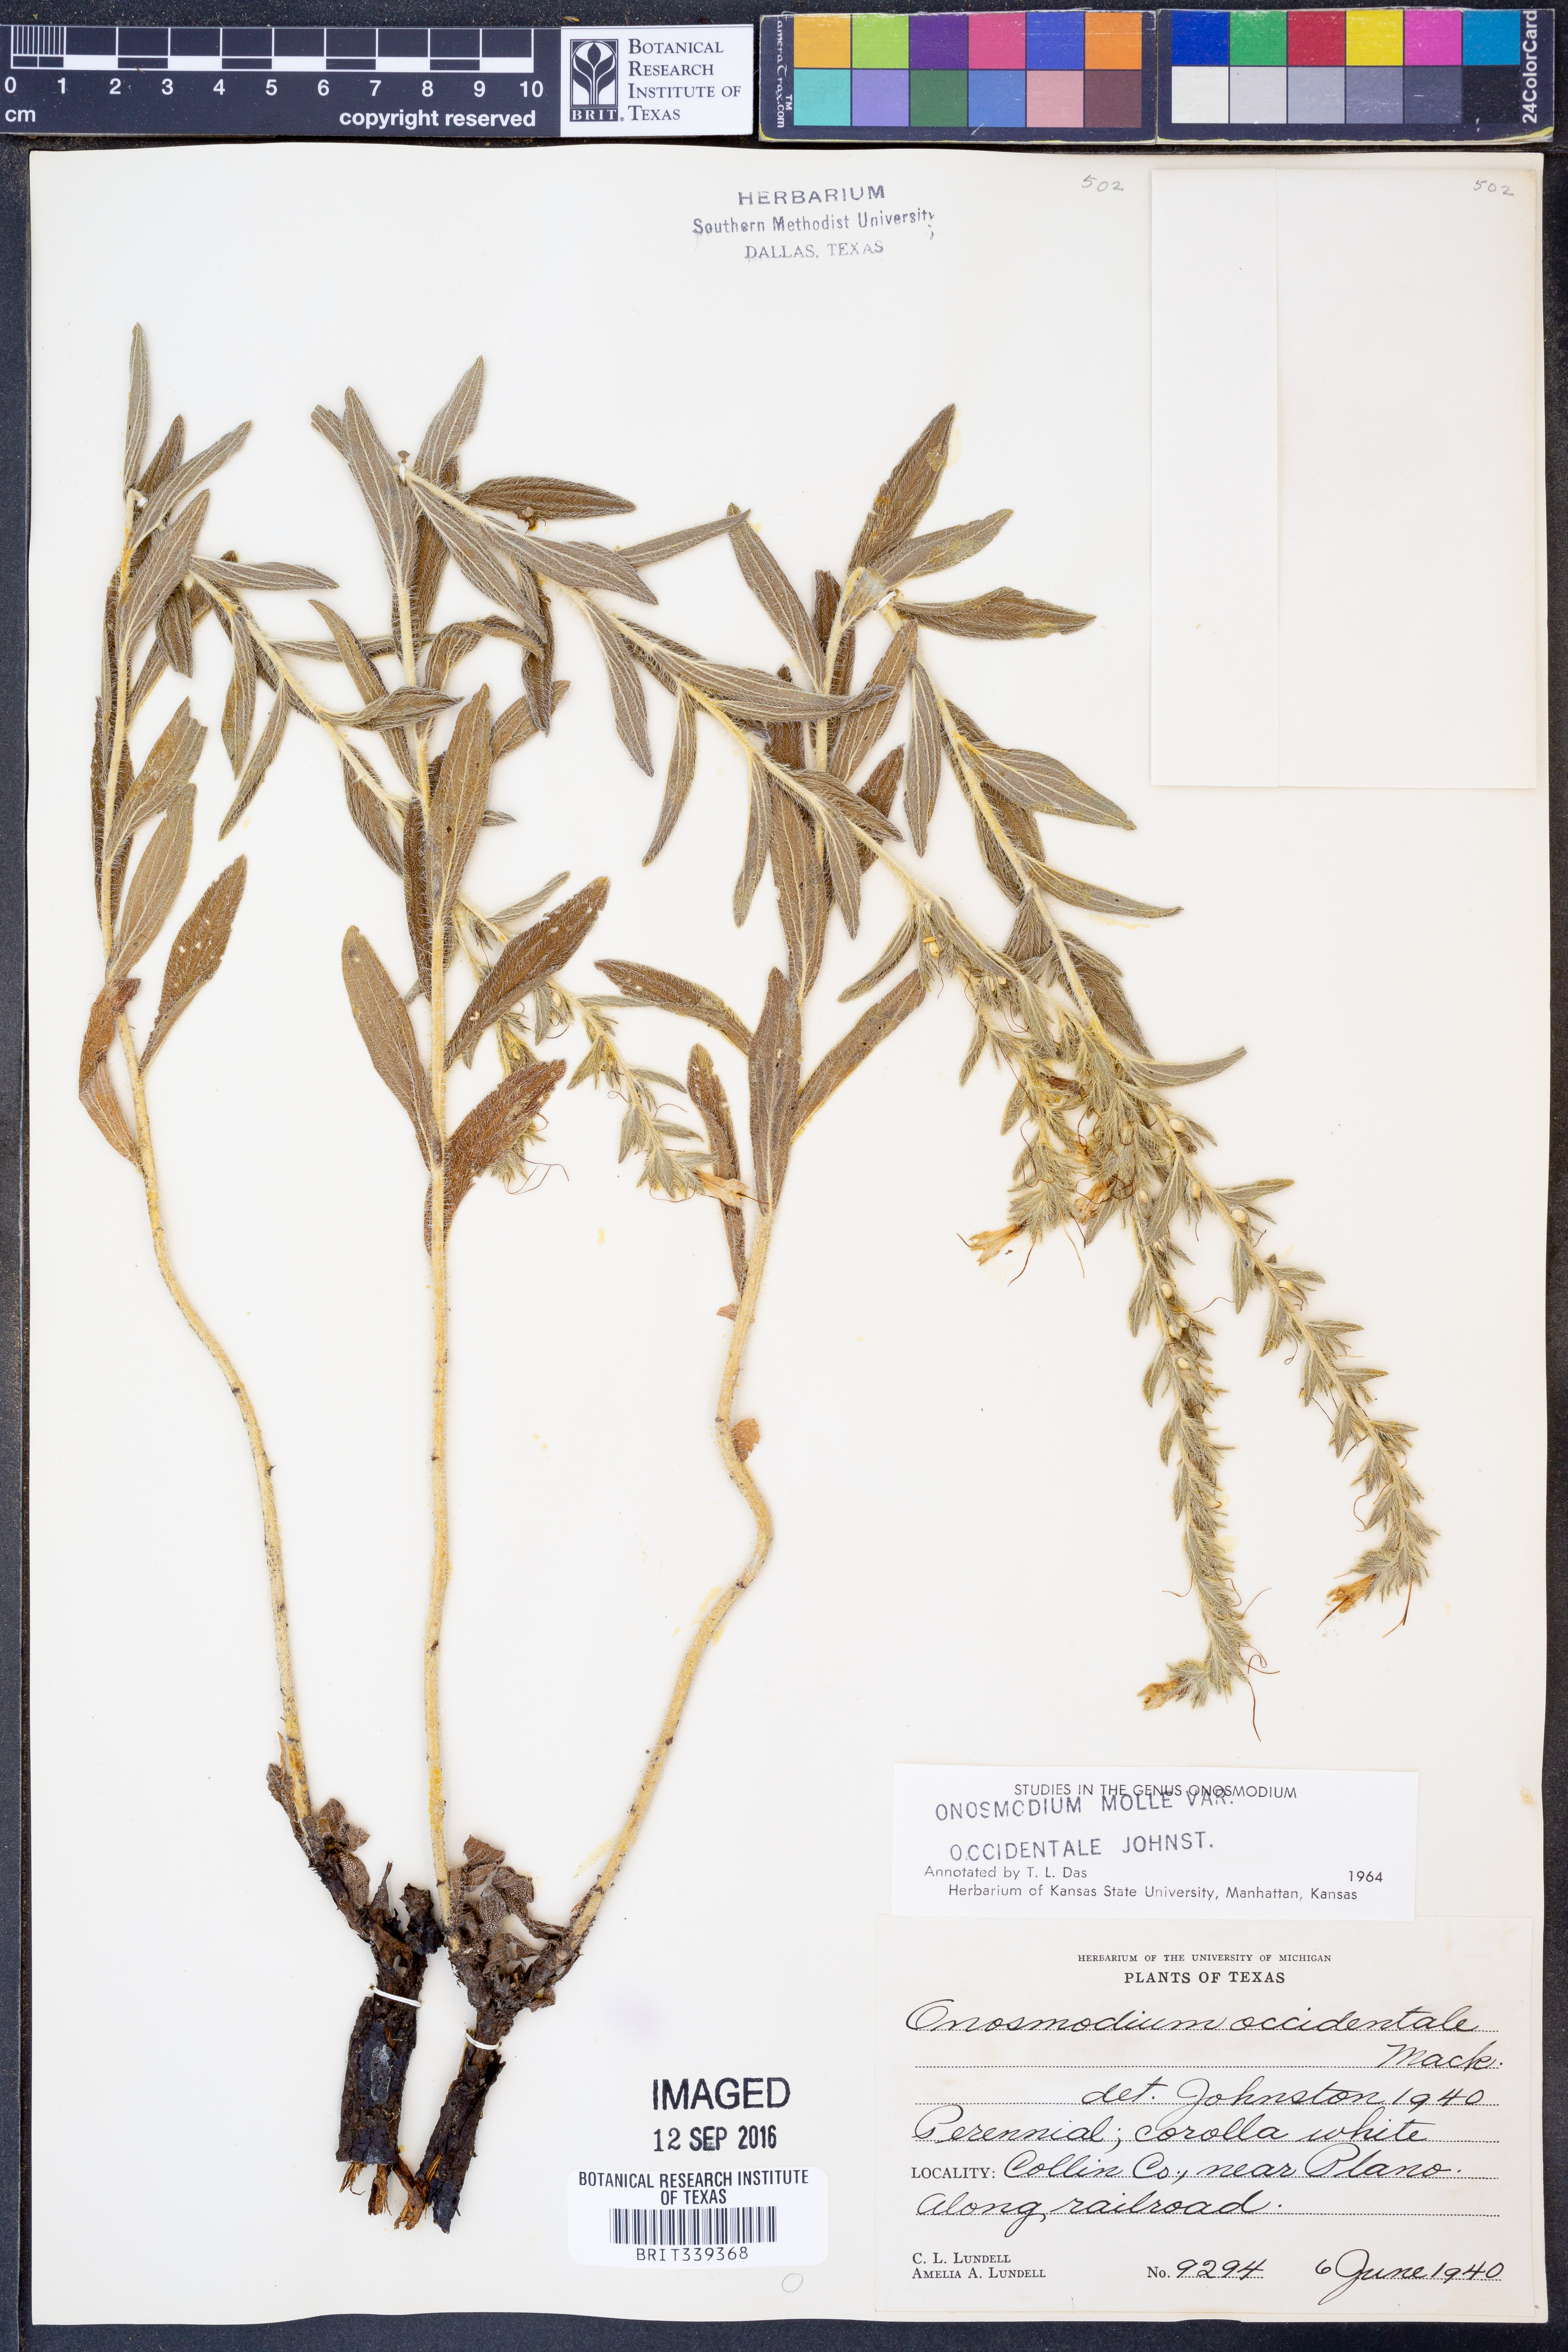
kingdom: Plantae
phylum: Tracheophyta
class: Magnoliopsida
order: Boraginales
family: Boraginaceae
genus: Lithospermum
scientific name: Lithospermum occidentale
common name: Western false gromwell
